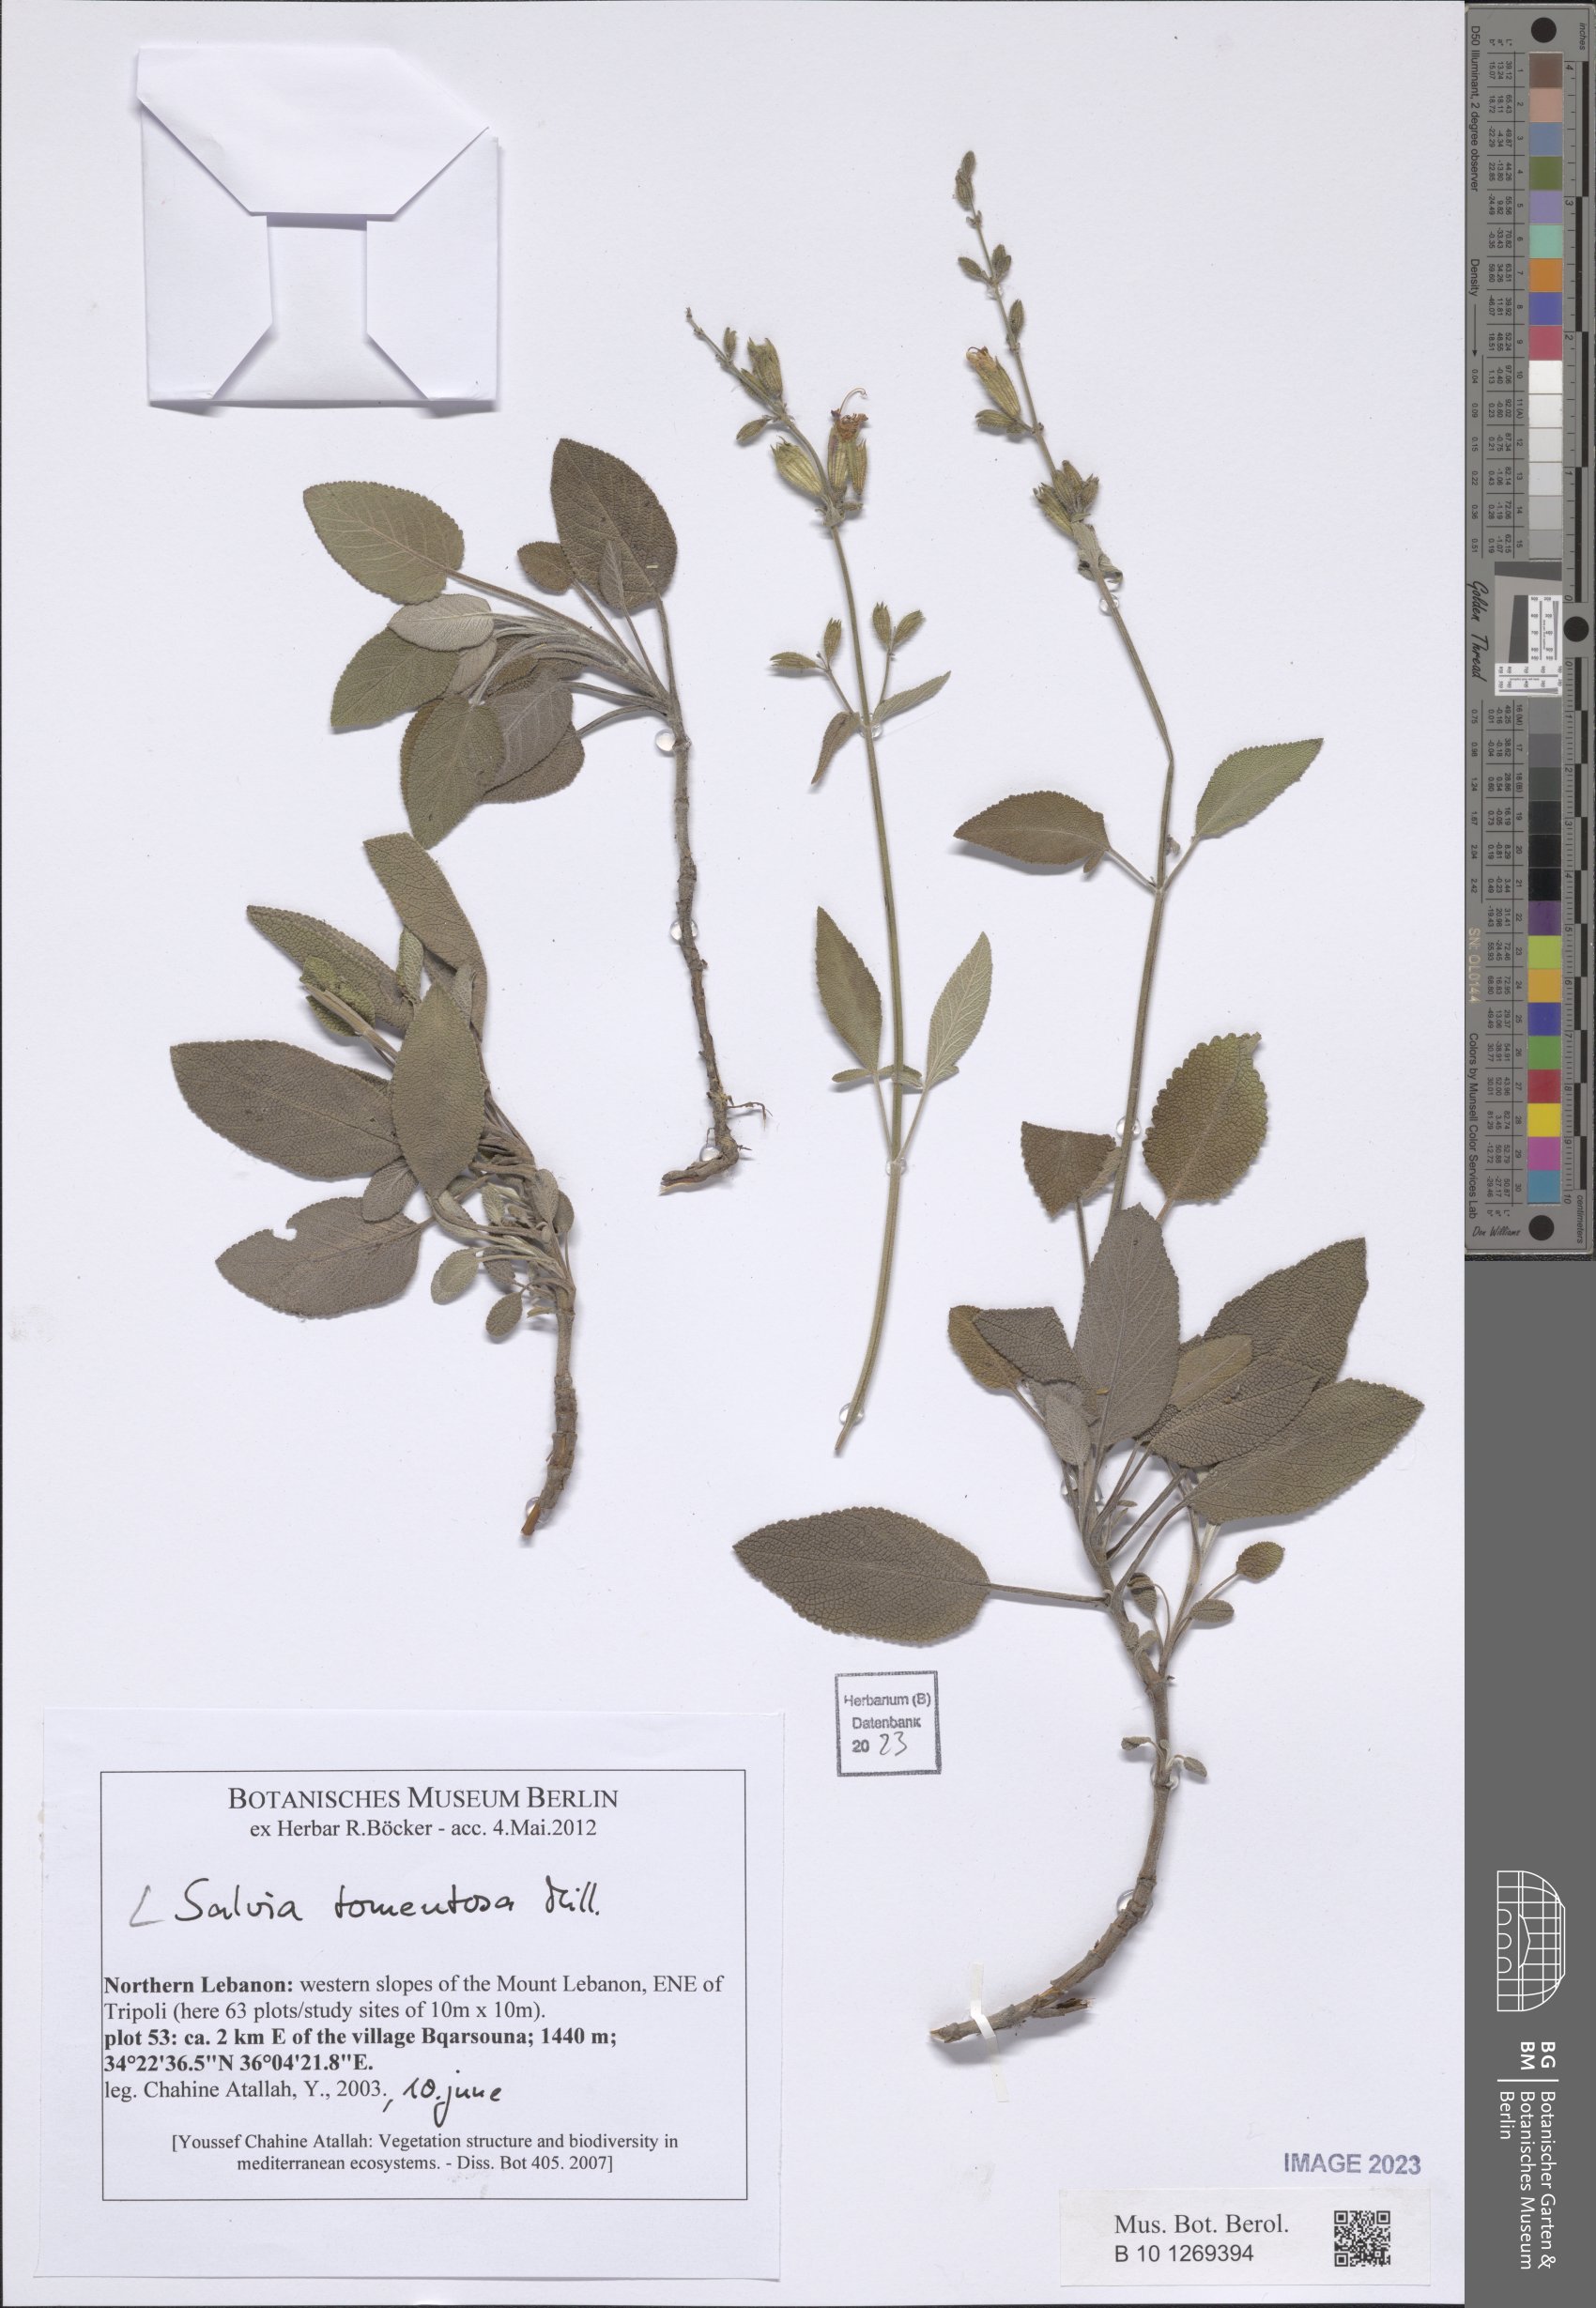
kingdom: Plantae
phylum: Tracheophyta
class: Magnoliopsida
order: Lamiales
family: Lamiaceae
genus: Salvia
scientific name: Salvia tomentosa
